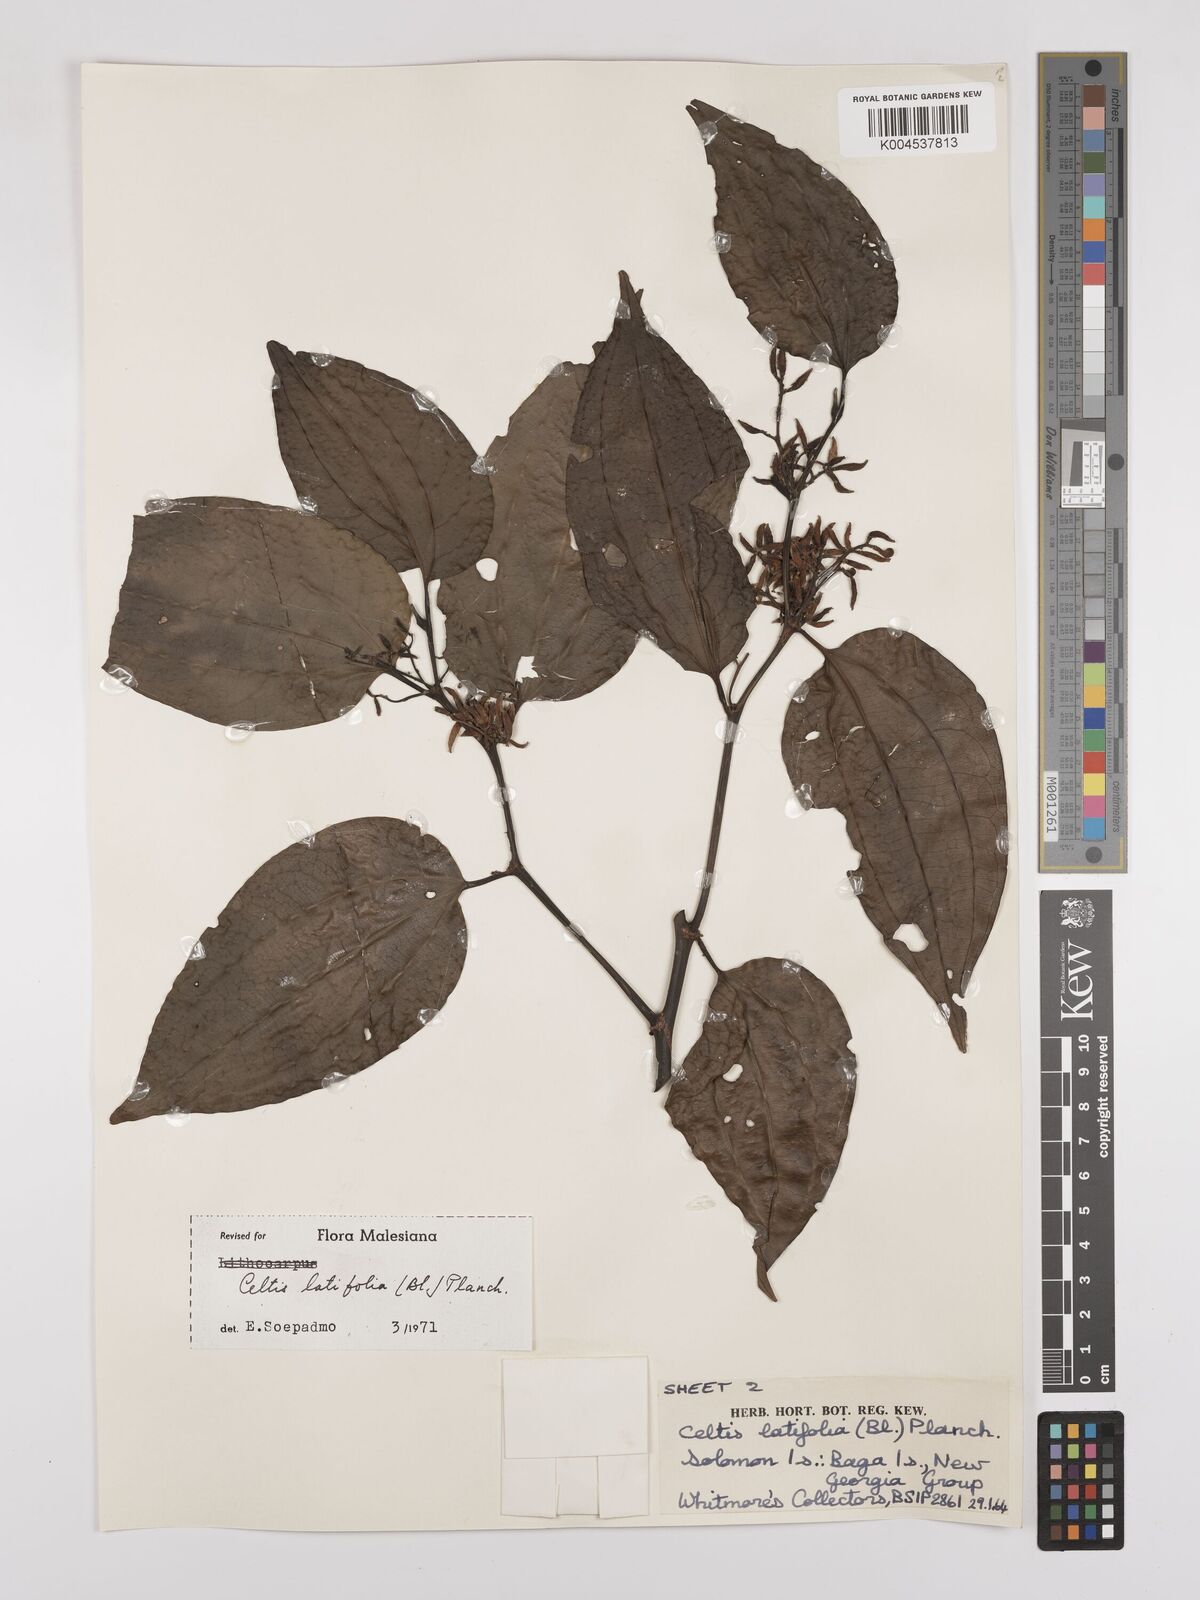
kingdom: Plantae
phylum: Tracheophyta
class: Magnoliopsida
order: Rosales
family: Cannabaceae
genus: Celtis
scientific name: Celtis latifolia
